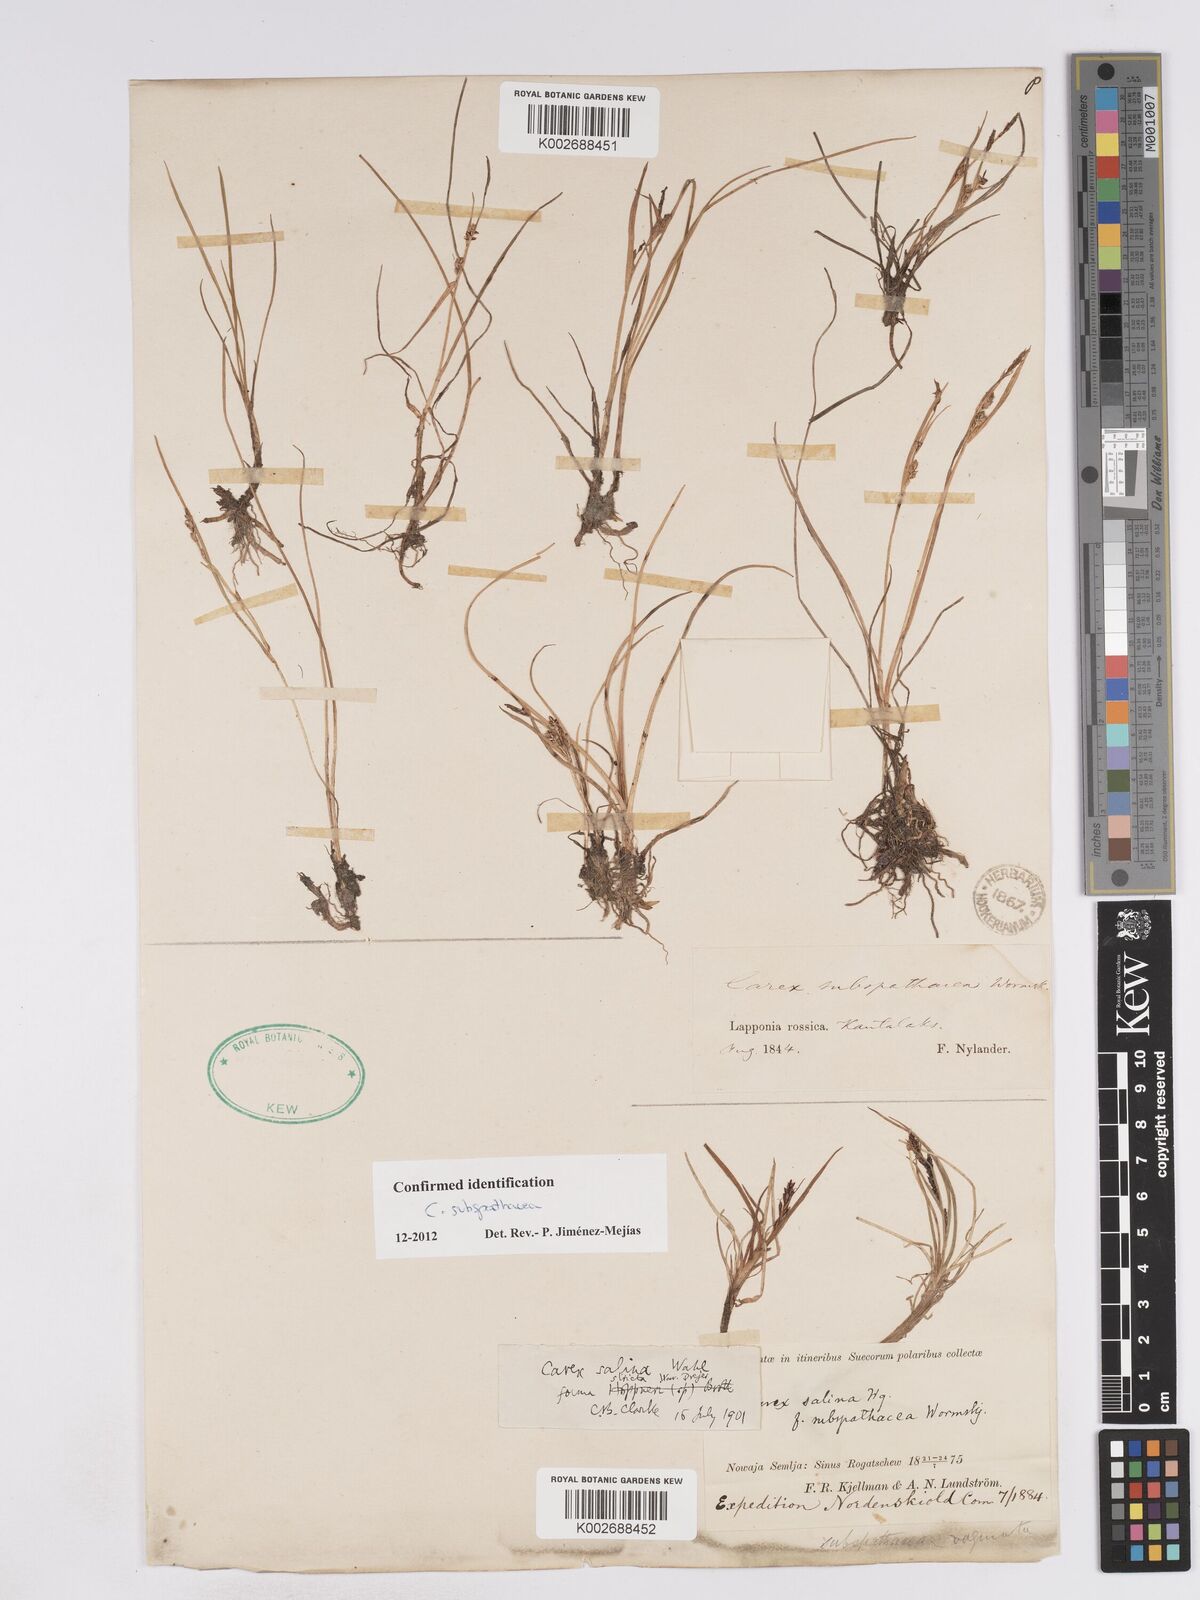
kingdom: Plantae
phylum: Tracheophyta
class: Liliopsida
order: Poales
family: Cyperaceae
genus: Carex
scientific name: Carex subspathacea
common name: Hoppner's sedge
